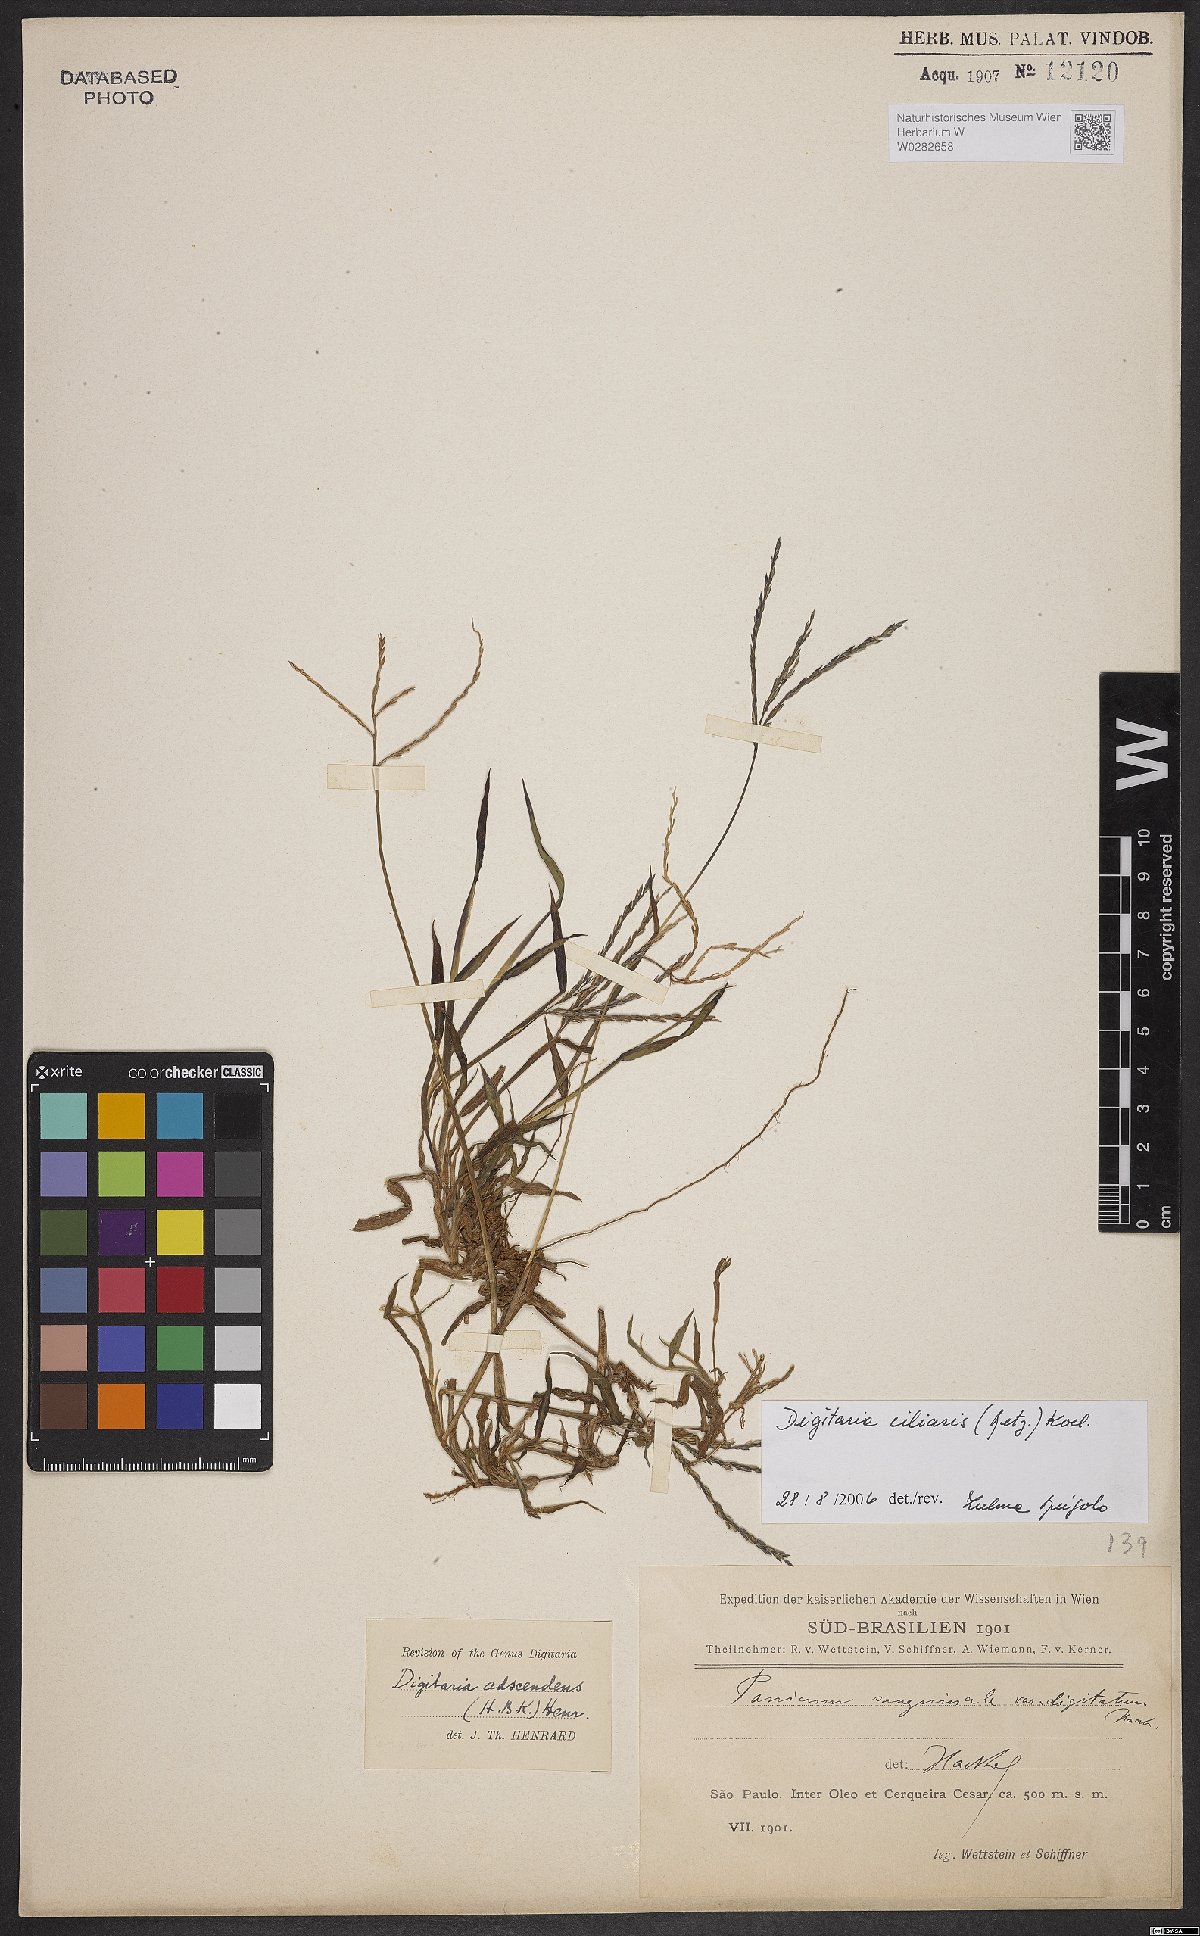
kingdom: Plantae
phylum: Tracheophyta
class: Liliopsida
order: Poales
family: Poaceae
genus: Digitaria
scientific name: Digitaria ciliaris
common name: Tropical finger-grass
